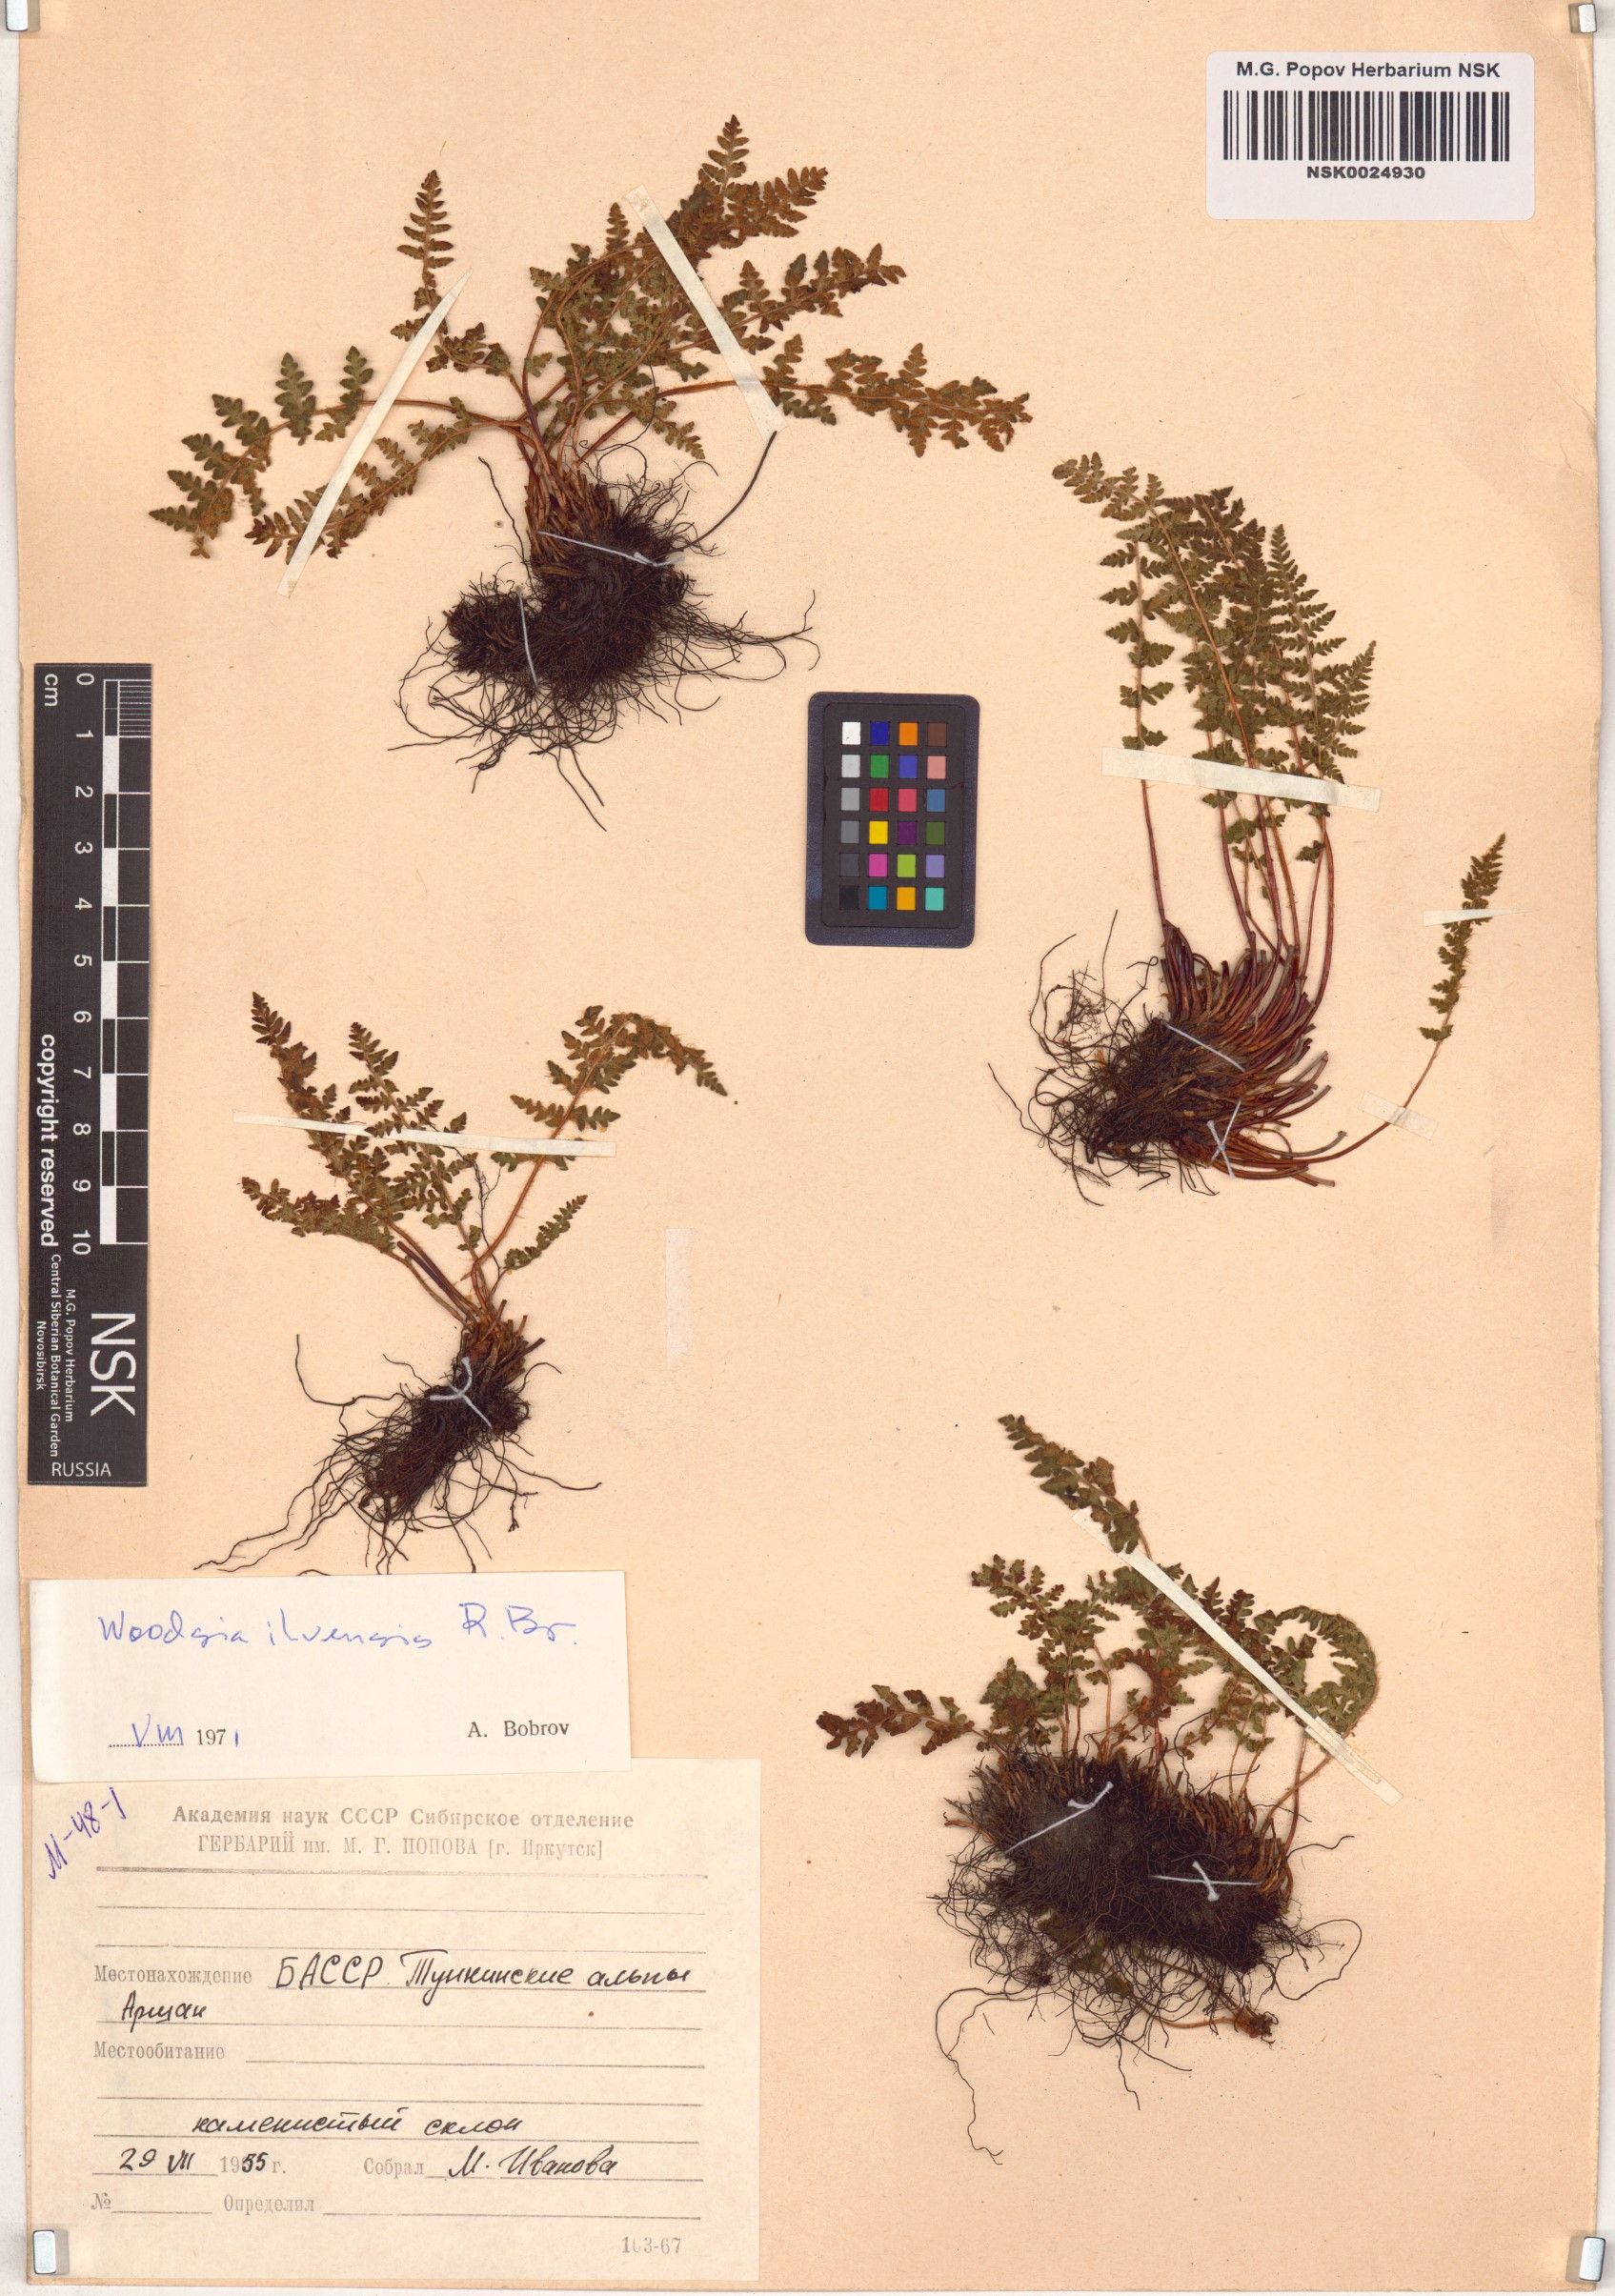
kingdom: Plantae
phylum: Tracheophyta
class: Polypodiopsida
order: Polypodiales
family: Woodsiaceae
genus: Woodsia
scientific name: Woodsia ilvensis
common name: Fragrant woodsia
